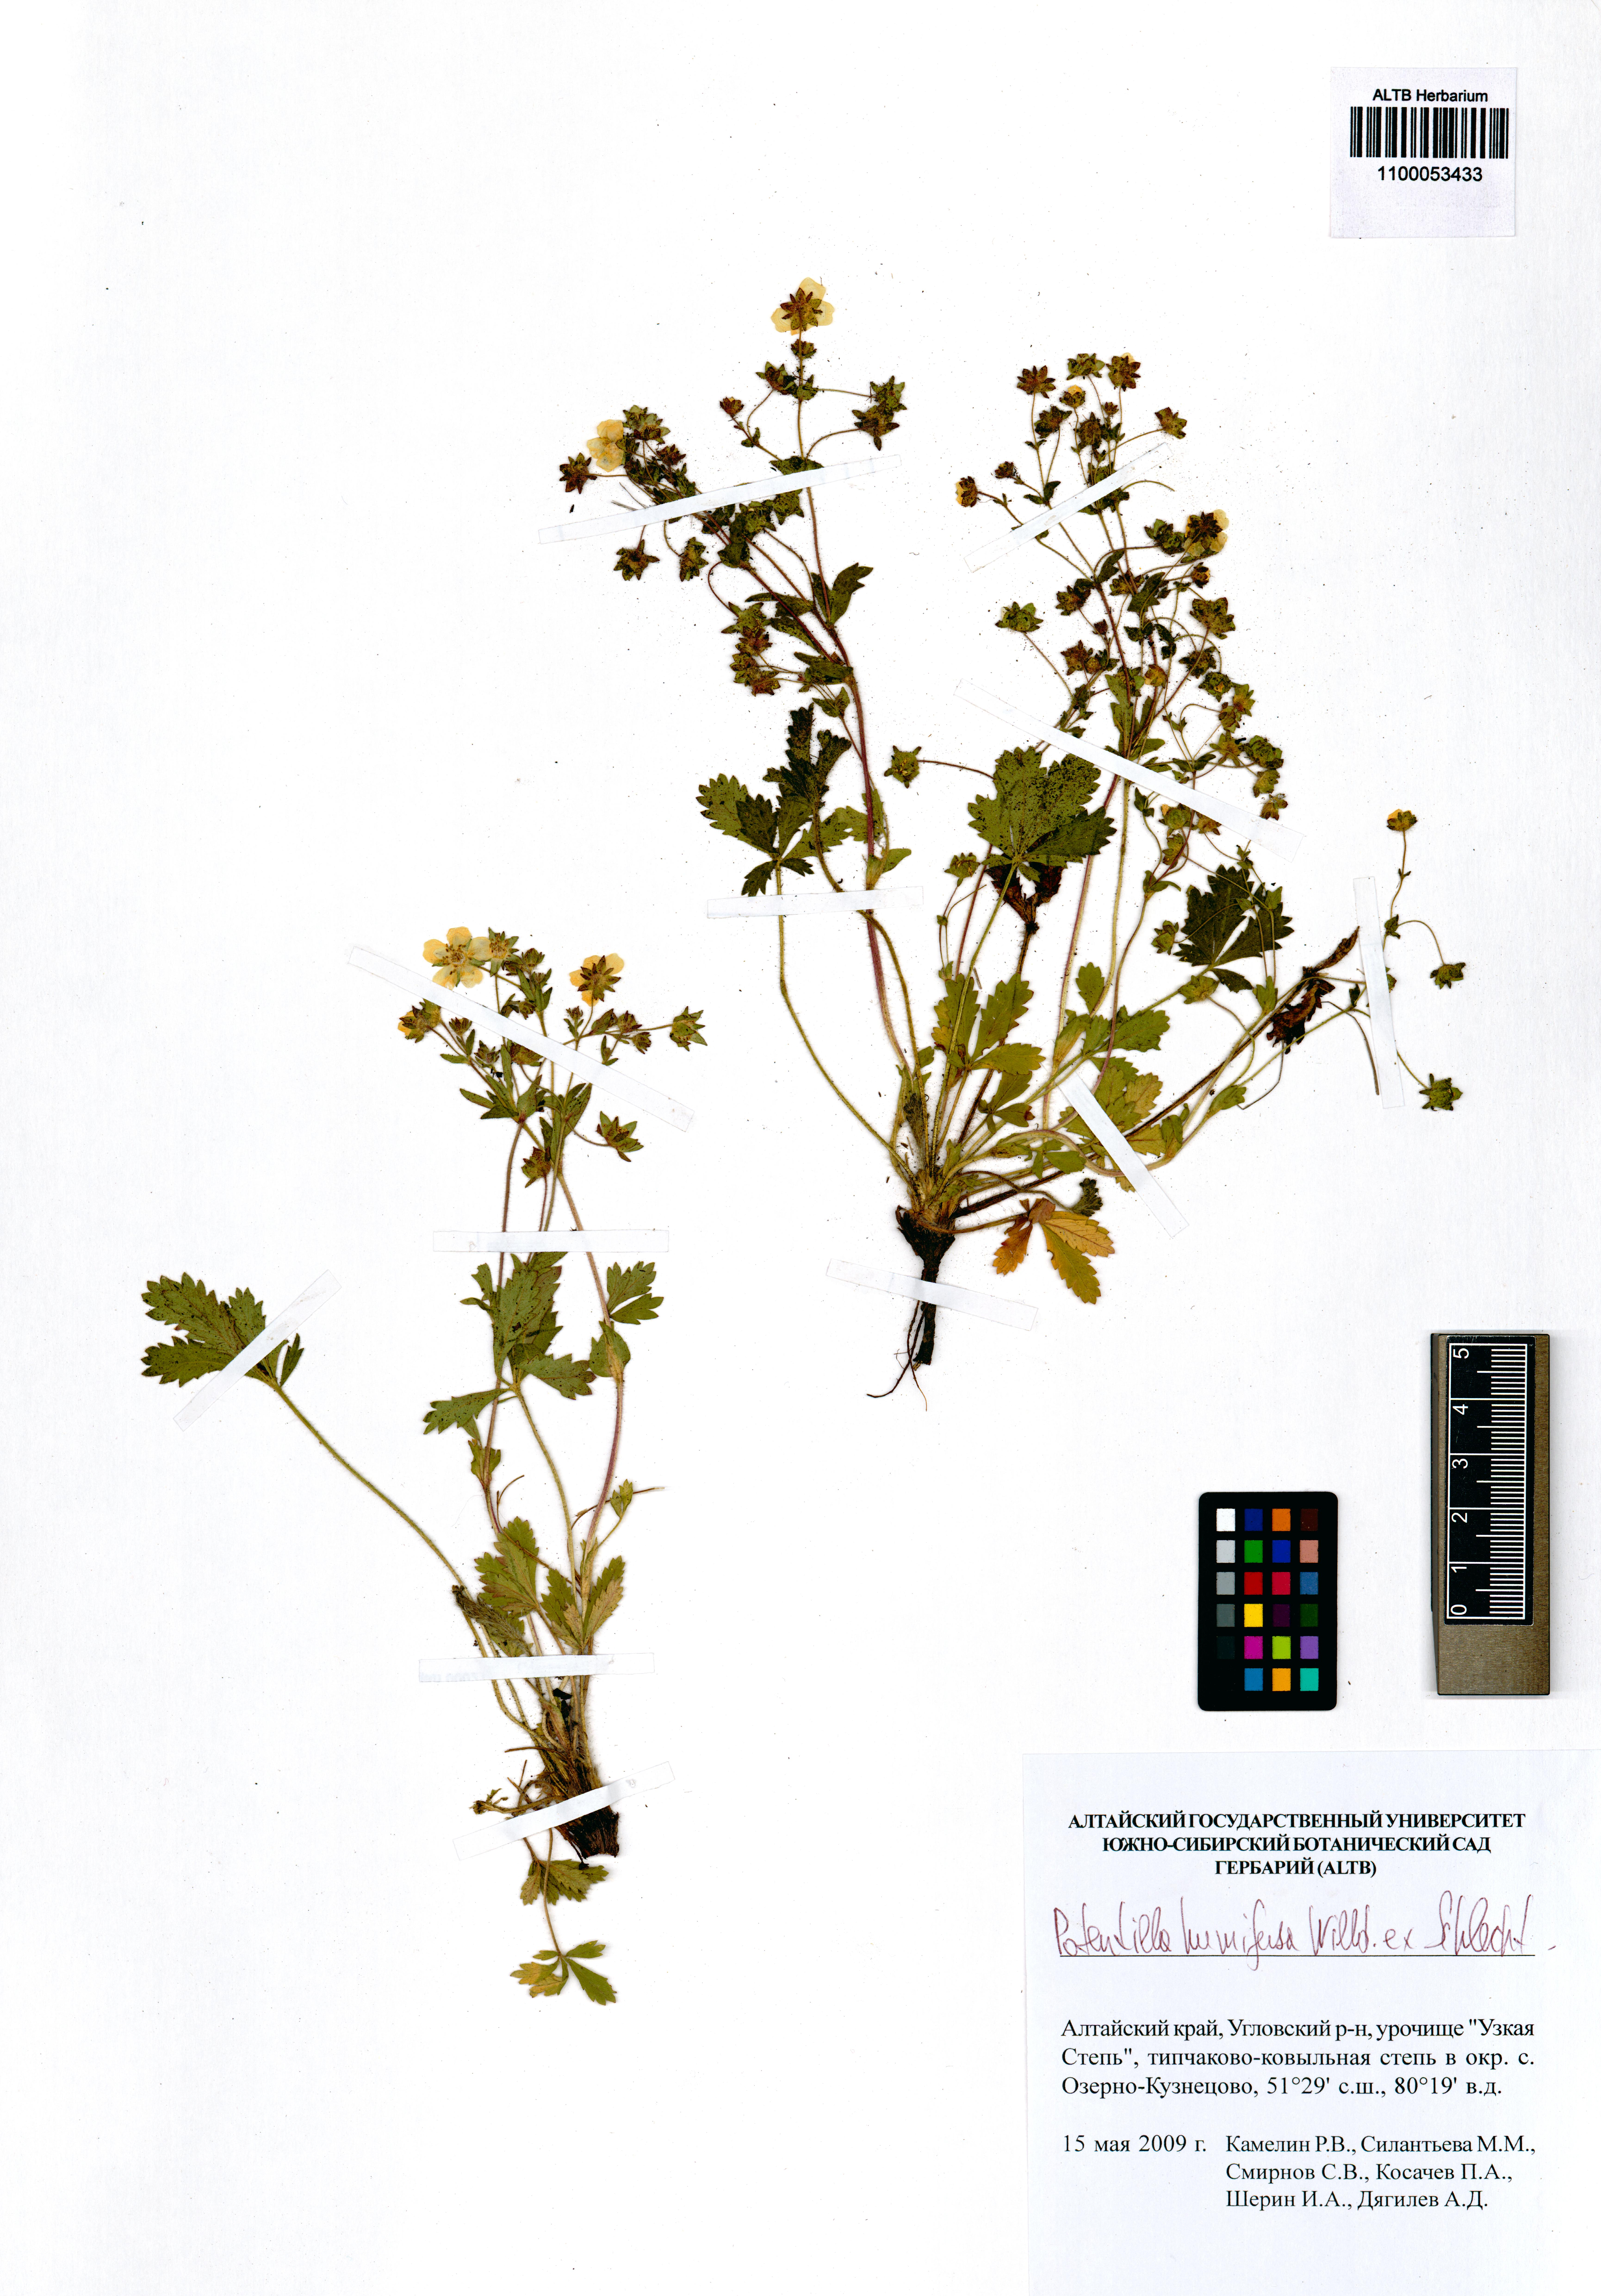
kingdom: Plantae
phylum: Tracheophyta
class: Magnoliopsida
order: Rosales
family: Rosaceae
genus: Potentilla
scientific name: Potentilla humifusa
